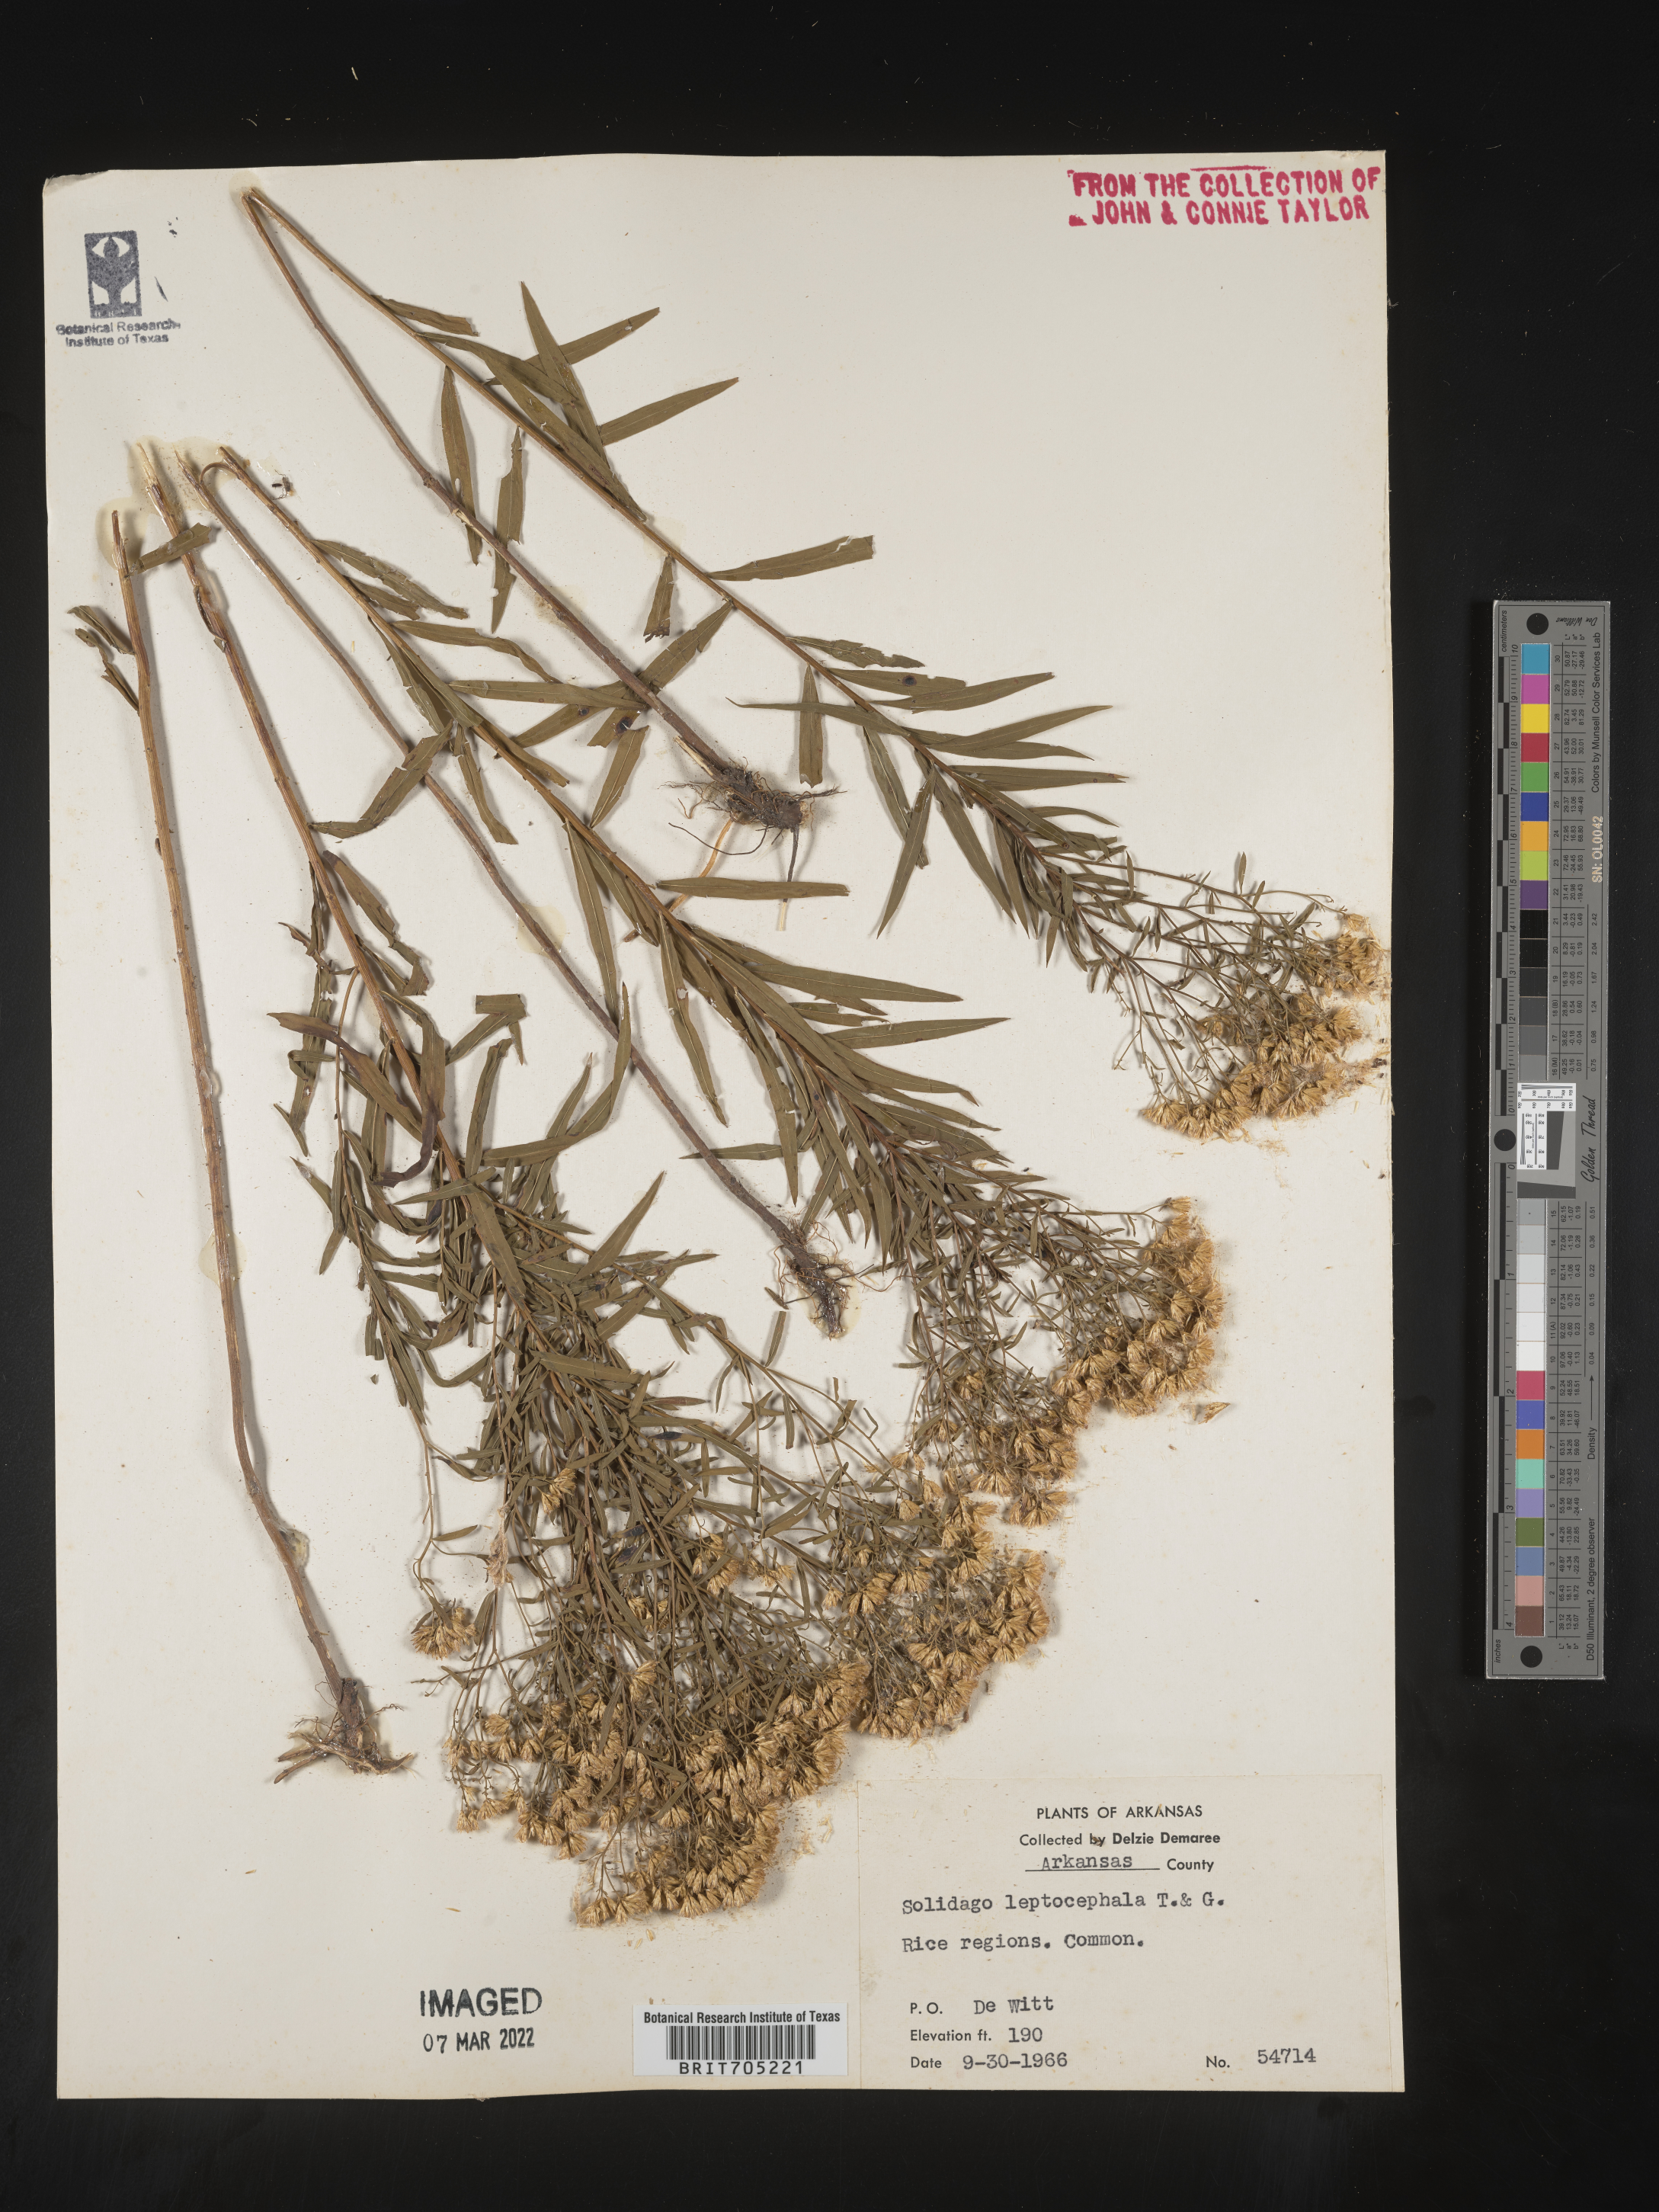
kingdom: Plantae
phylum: Tracheophyta
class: Magnoliopsida
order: Asterales
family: Asteraceae
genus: Euthamia
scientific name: Euthamia leptocephala
